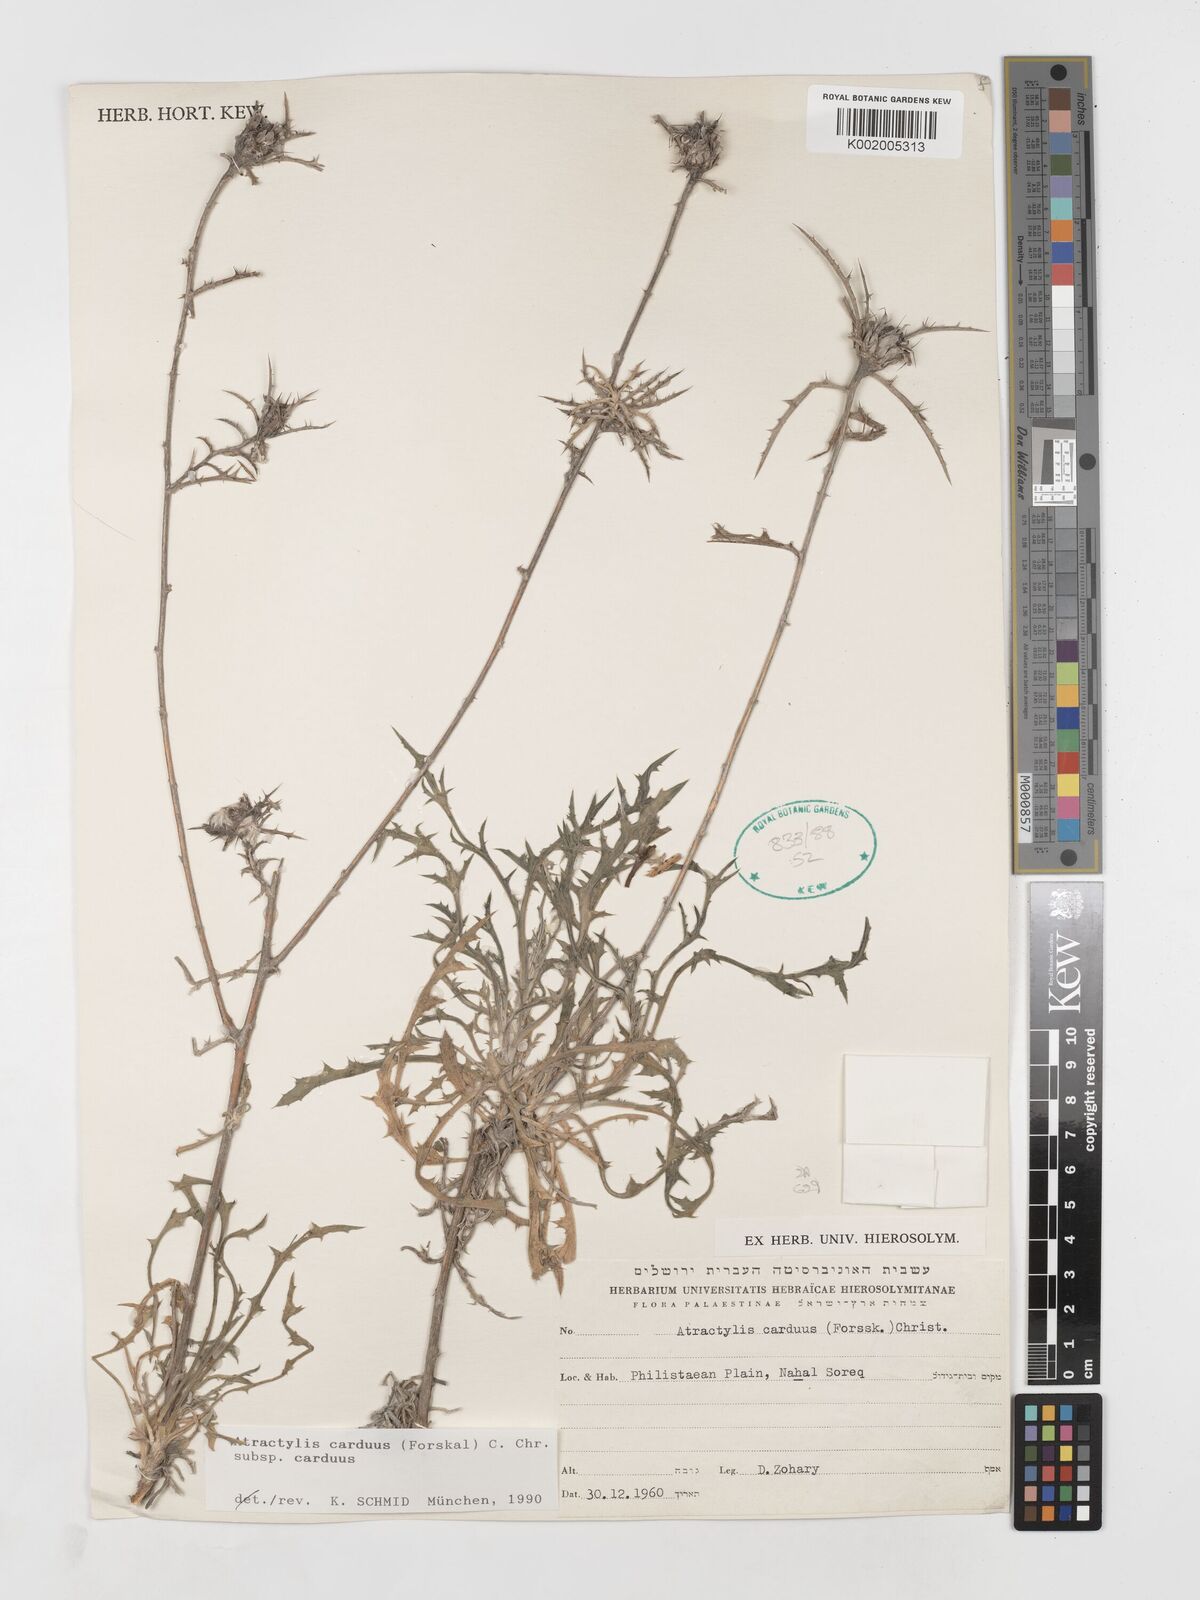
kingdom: Plantae
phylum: Tracheophyta
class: Magnoliopsida
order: Asterales
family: Asteraceae
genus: Atractylis
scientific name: Atractylis carduus
